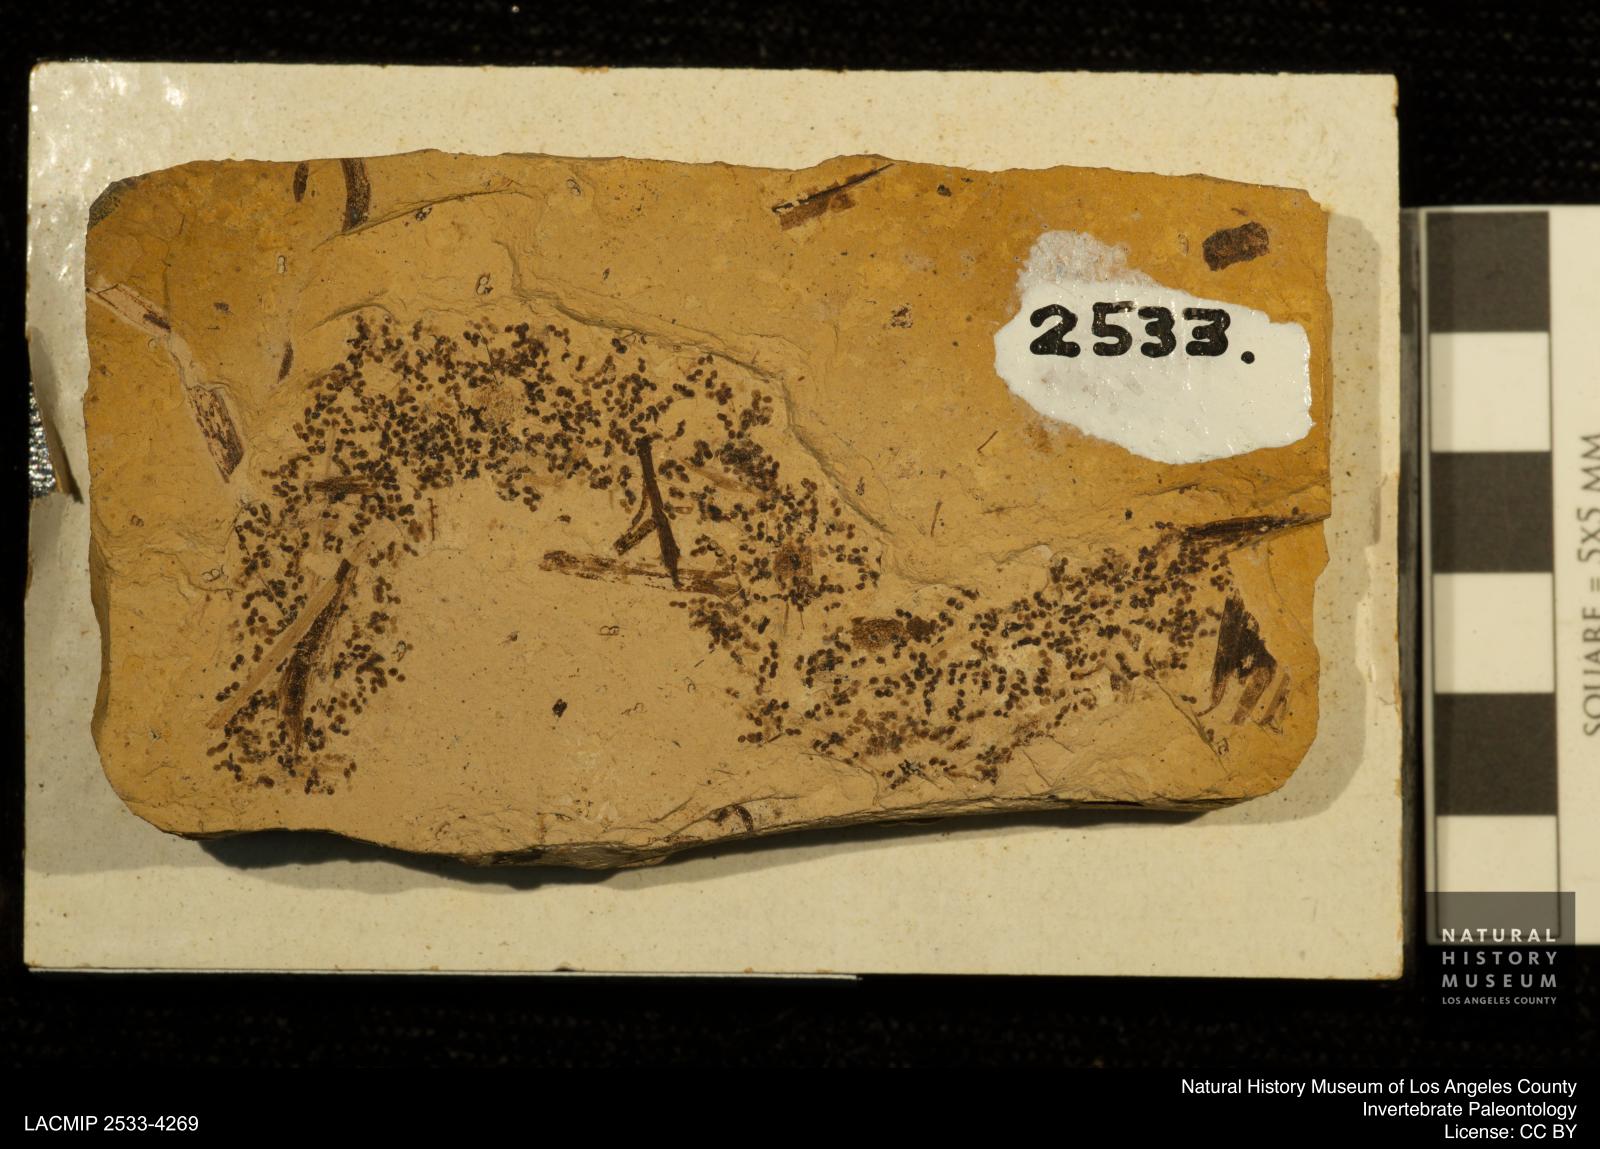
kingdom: Animalia
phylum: Arthropoda
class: Branchiopoda
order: Diplostraca
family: Daphniidae
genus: Daphnia
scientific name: Daphnia
